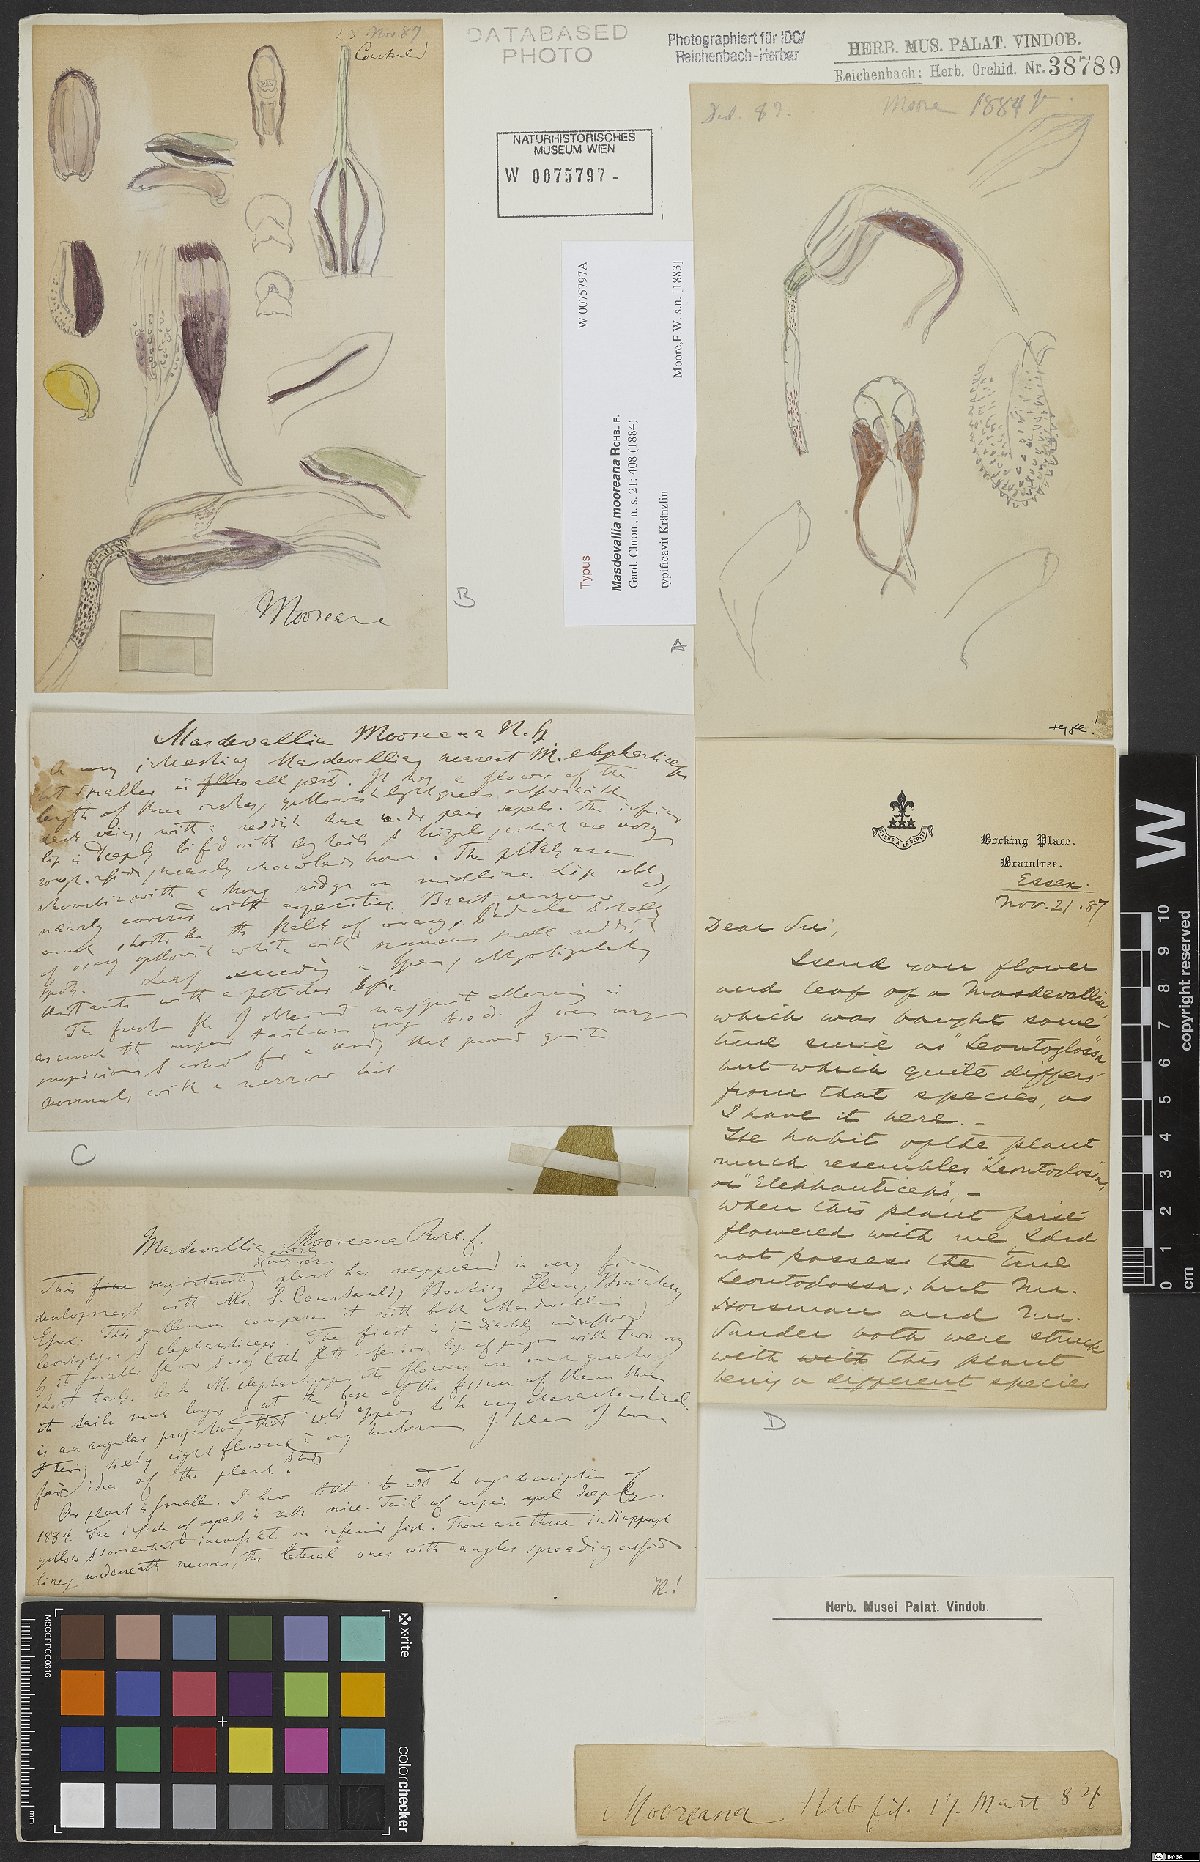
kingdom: Plantae
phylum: Tracheophyta
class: Liliopsida
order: Asparagales
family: Orchidaceae
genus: Masdevallia
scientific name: Masdevallia mooreana
